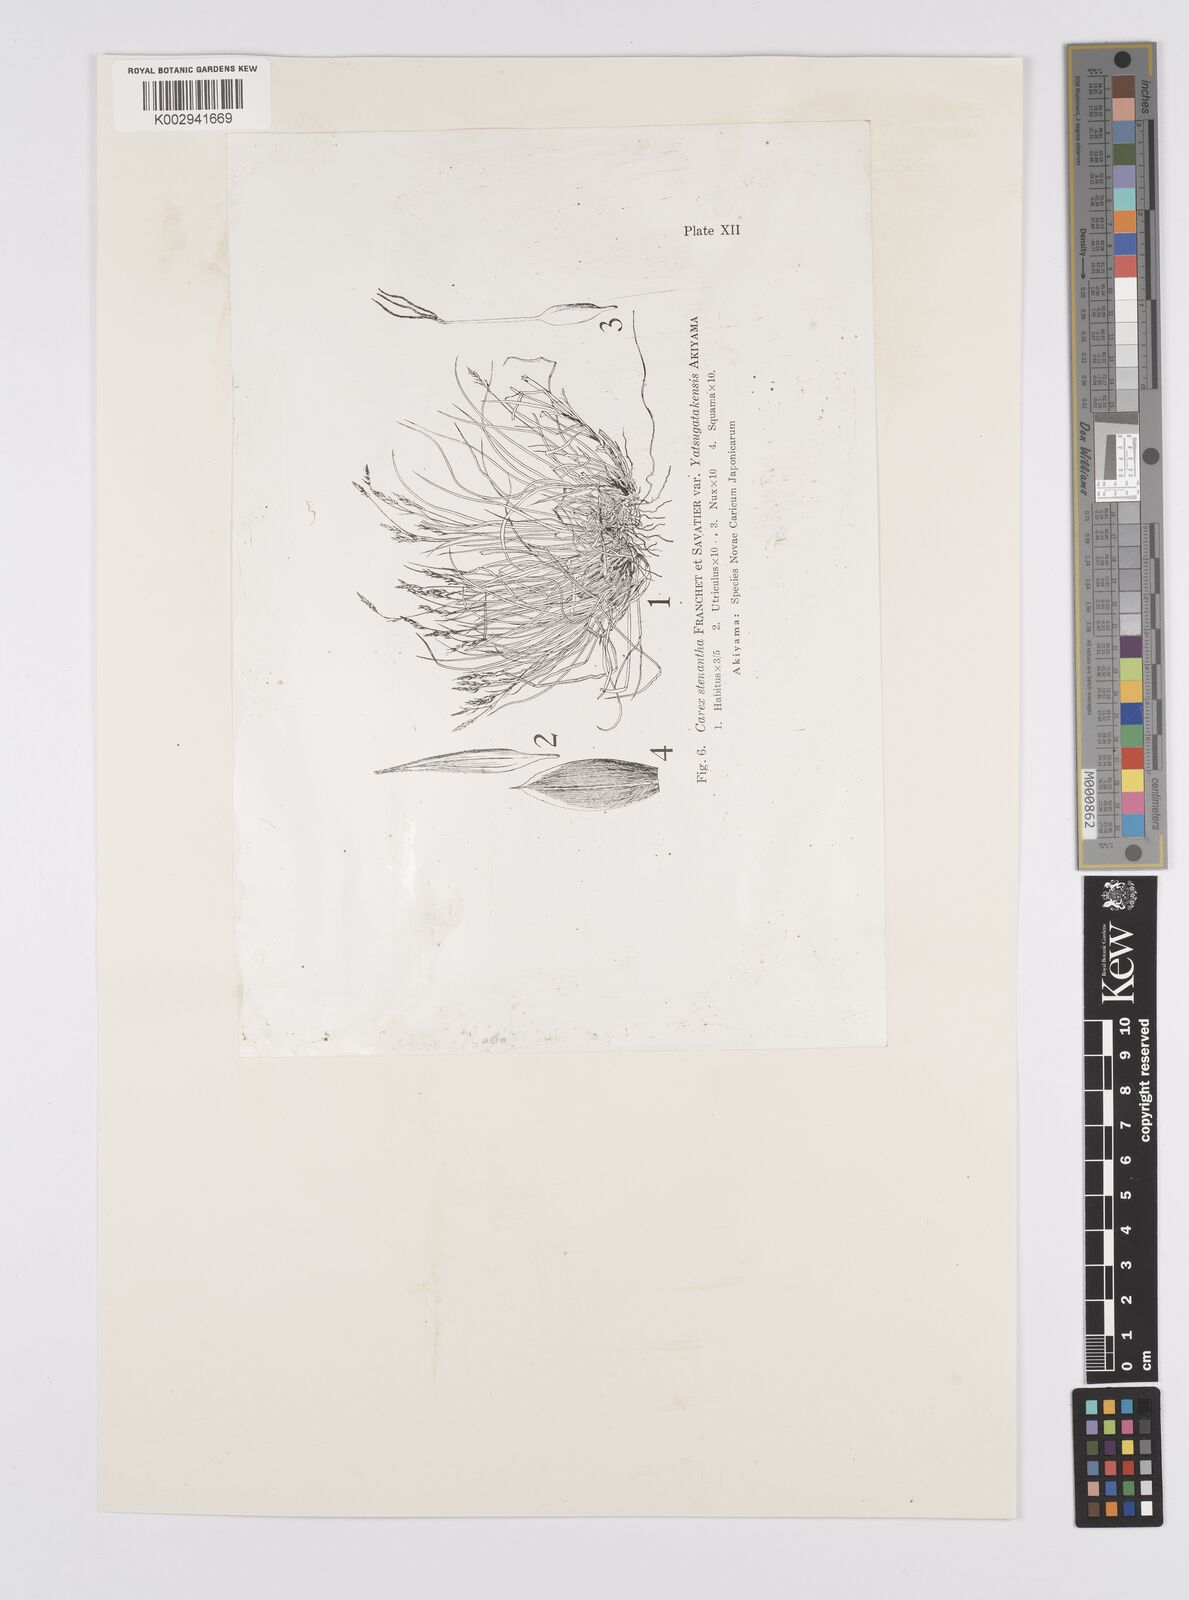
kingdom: Plantae
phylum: Tracheophyta
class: Liliopsida
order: Poales
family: Cyperaceae
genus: Carex
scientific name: Carex stenantha
